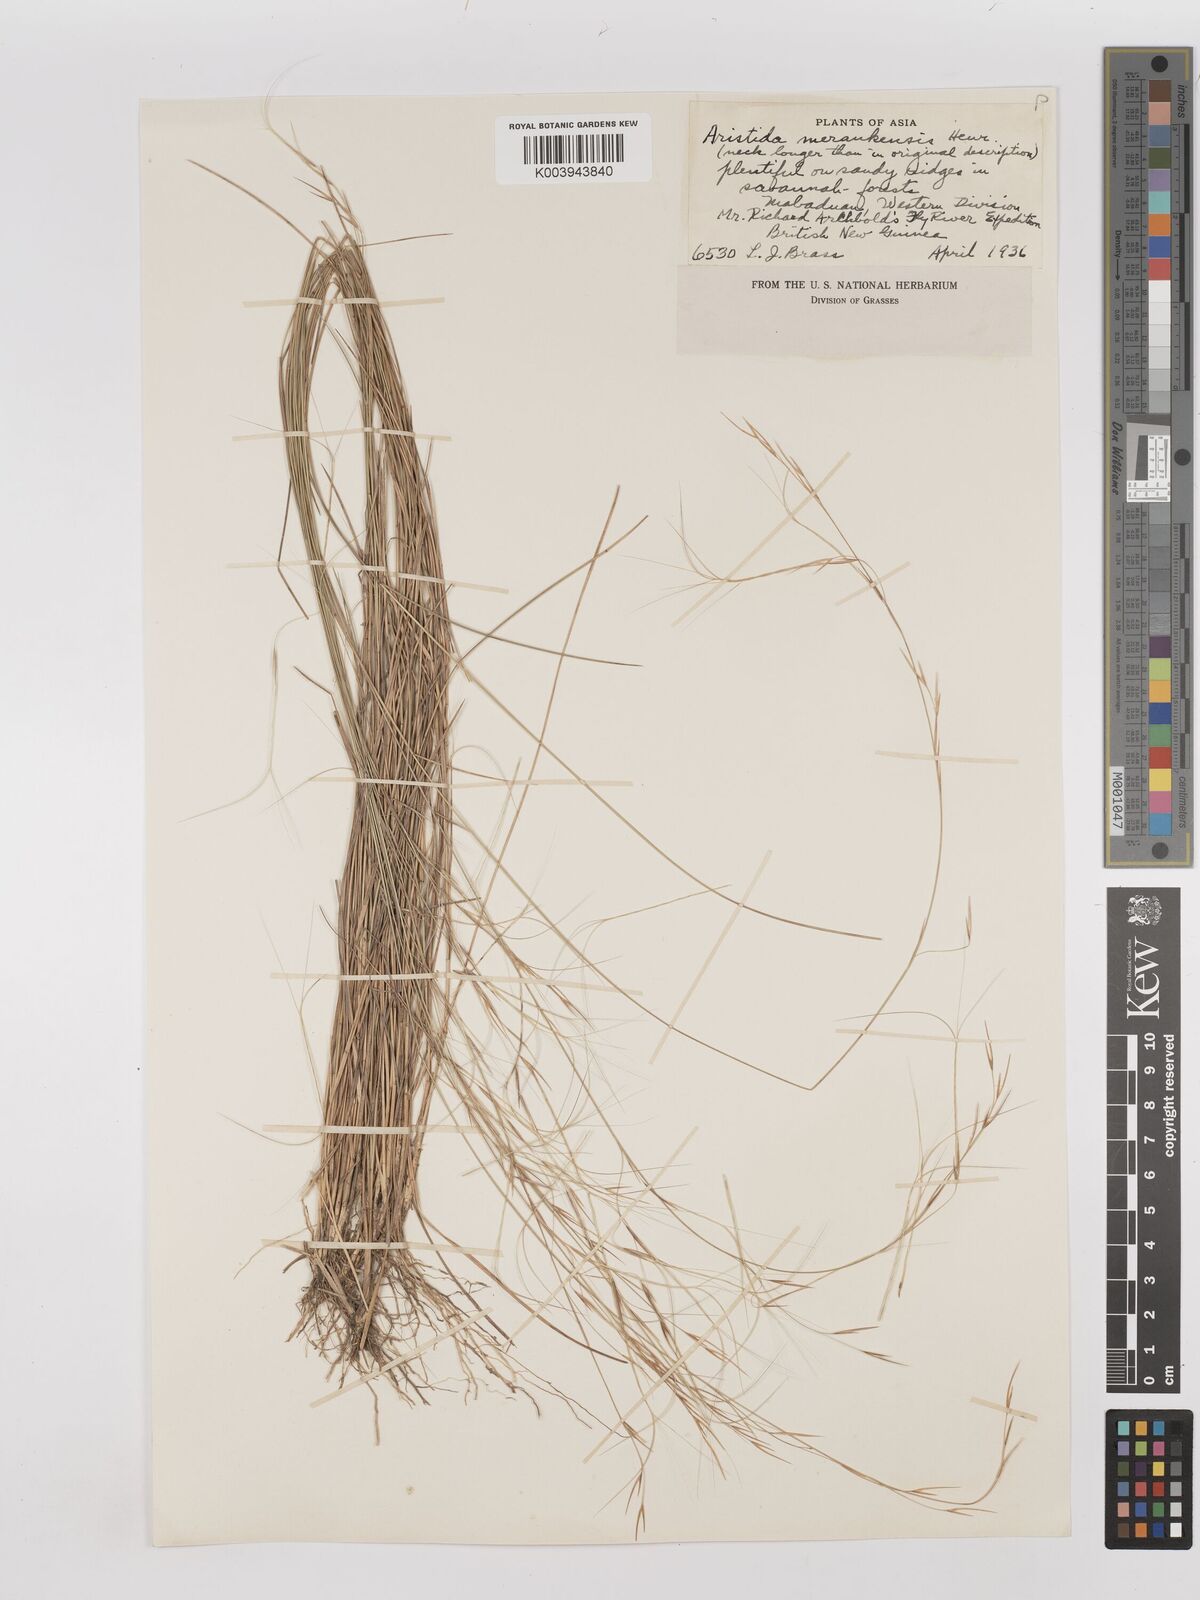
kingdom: Plantae
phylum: Tracheophyta
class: Liliopsida
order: Poales
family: Poaceae
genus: Aristida
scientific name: Aristida meraukensis
